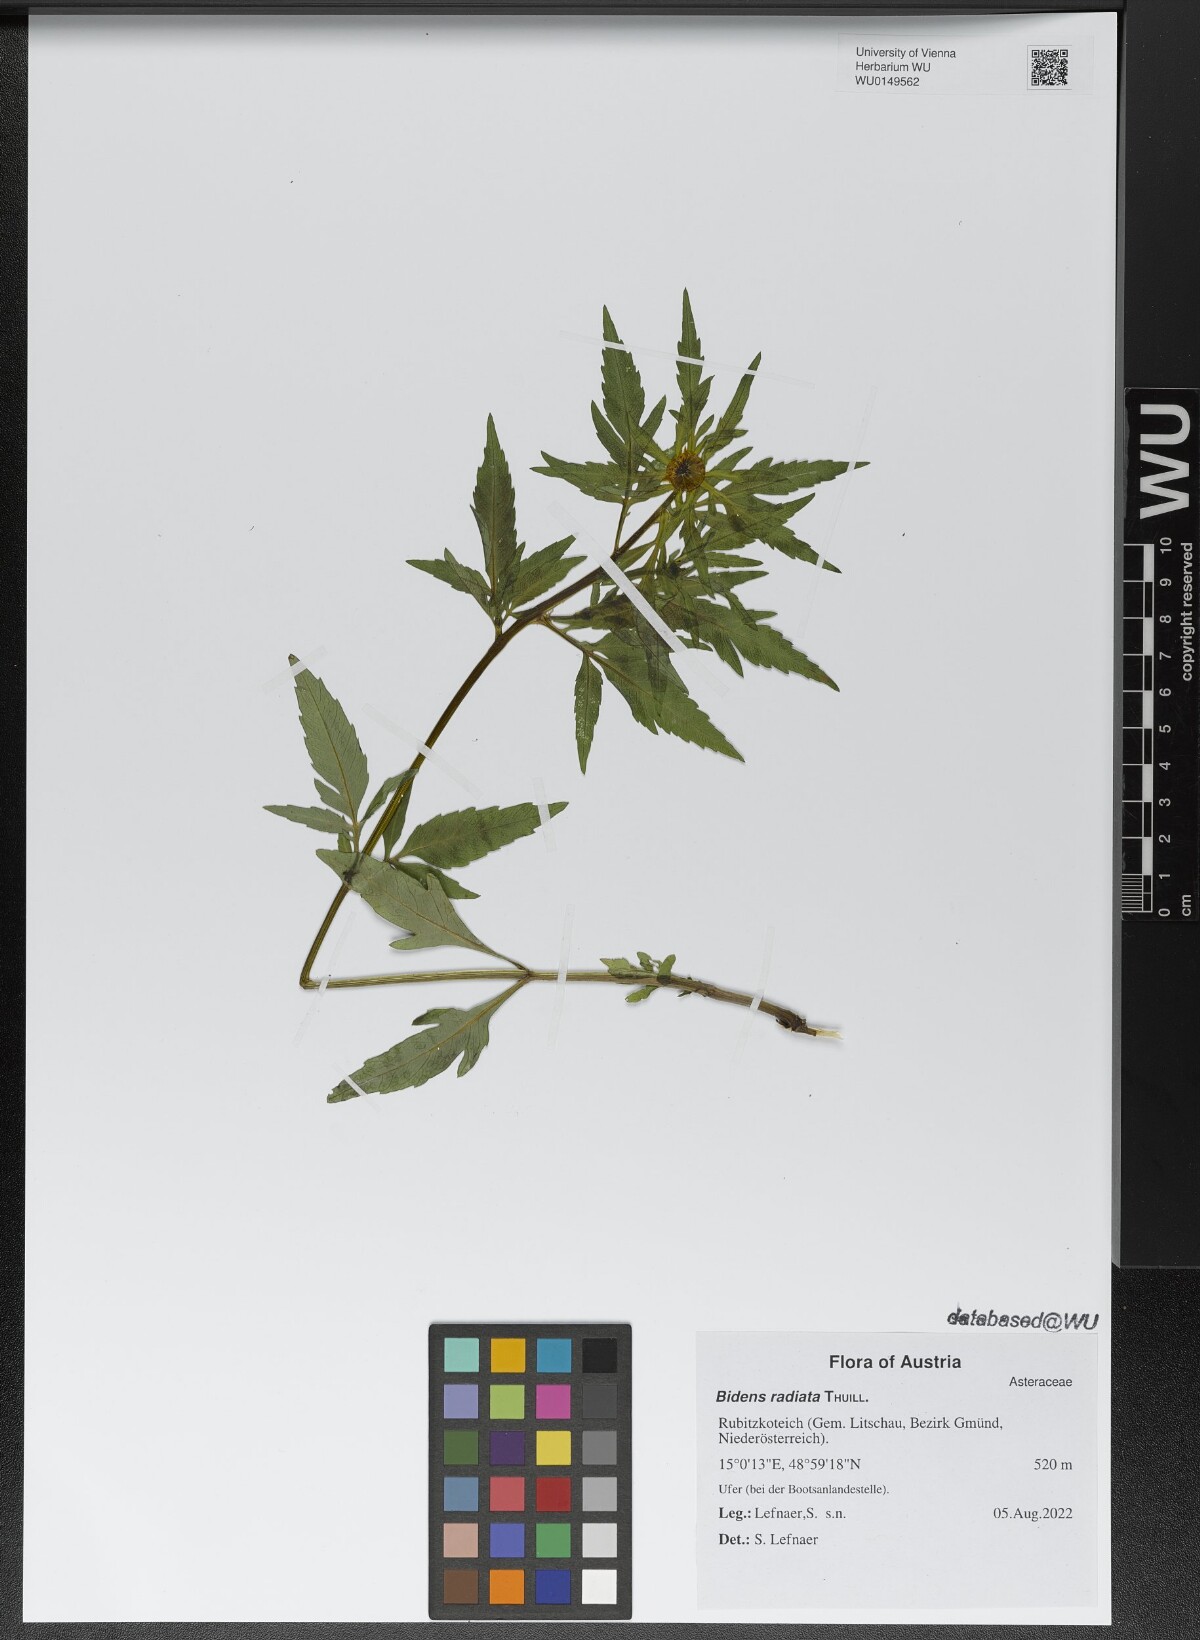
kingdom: Plantae
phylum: Tracheophyta
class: Magnoliopsida
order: Asterales
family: Asteraceae
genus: Bidens
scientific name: Bidens radiata
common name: Radiating bur-marigold
